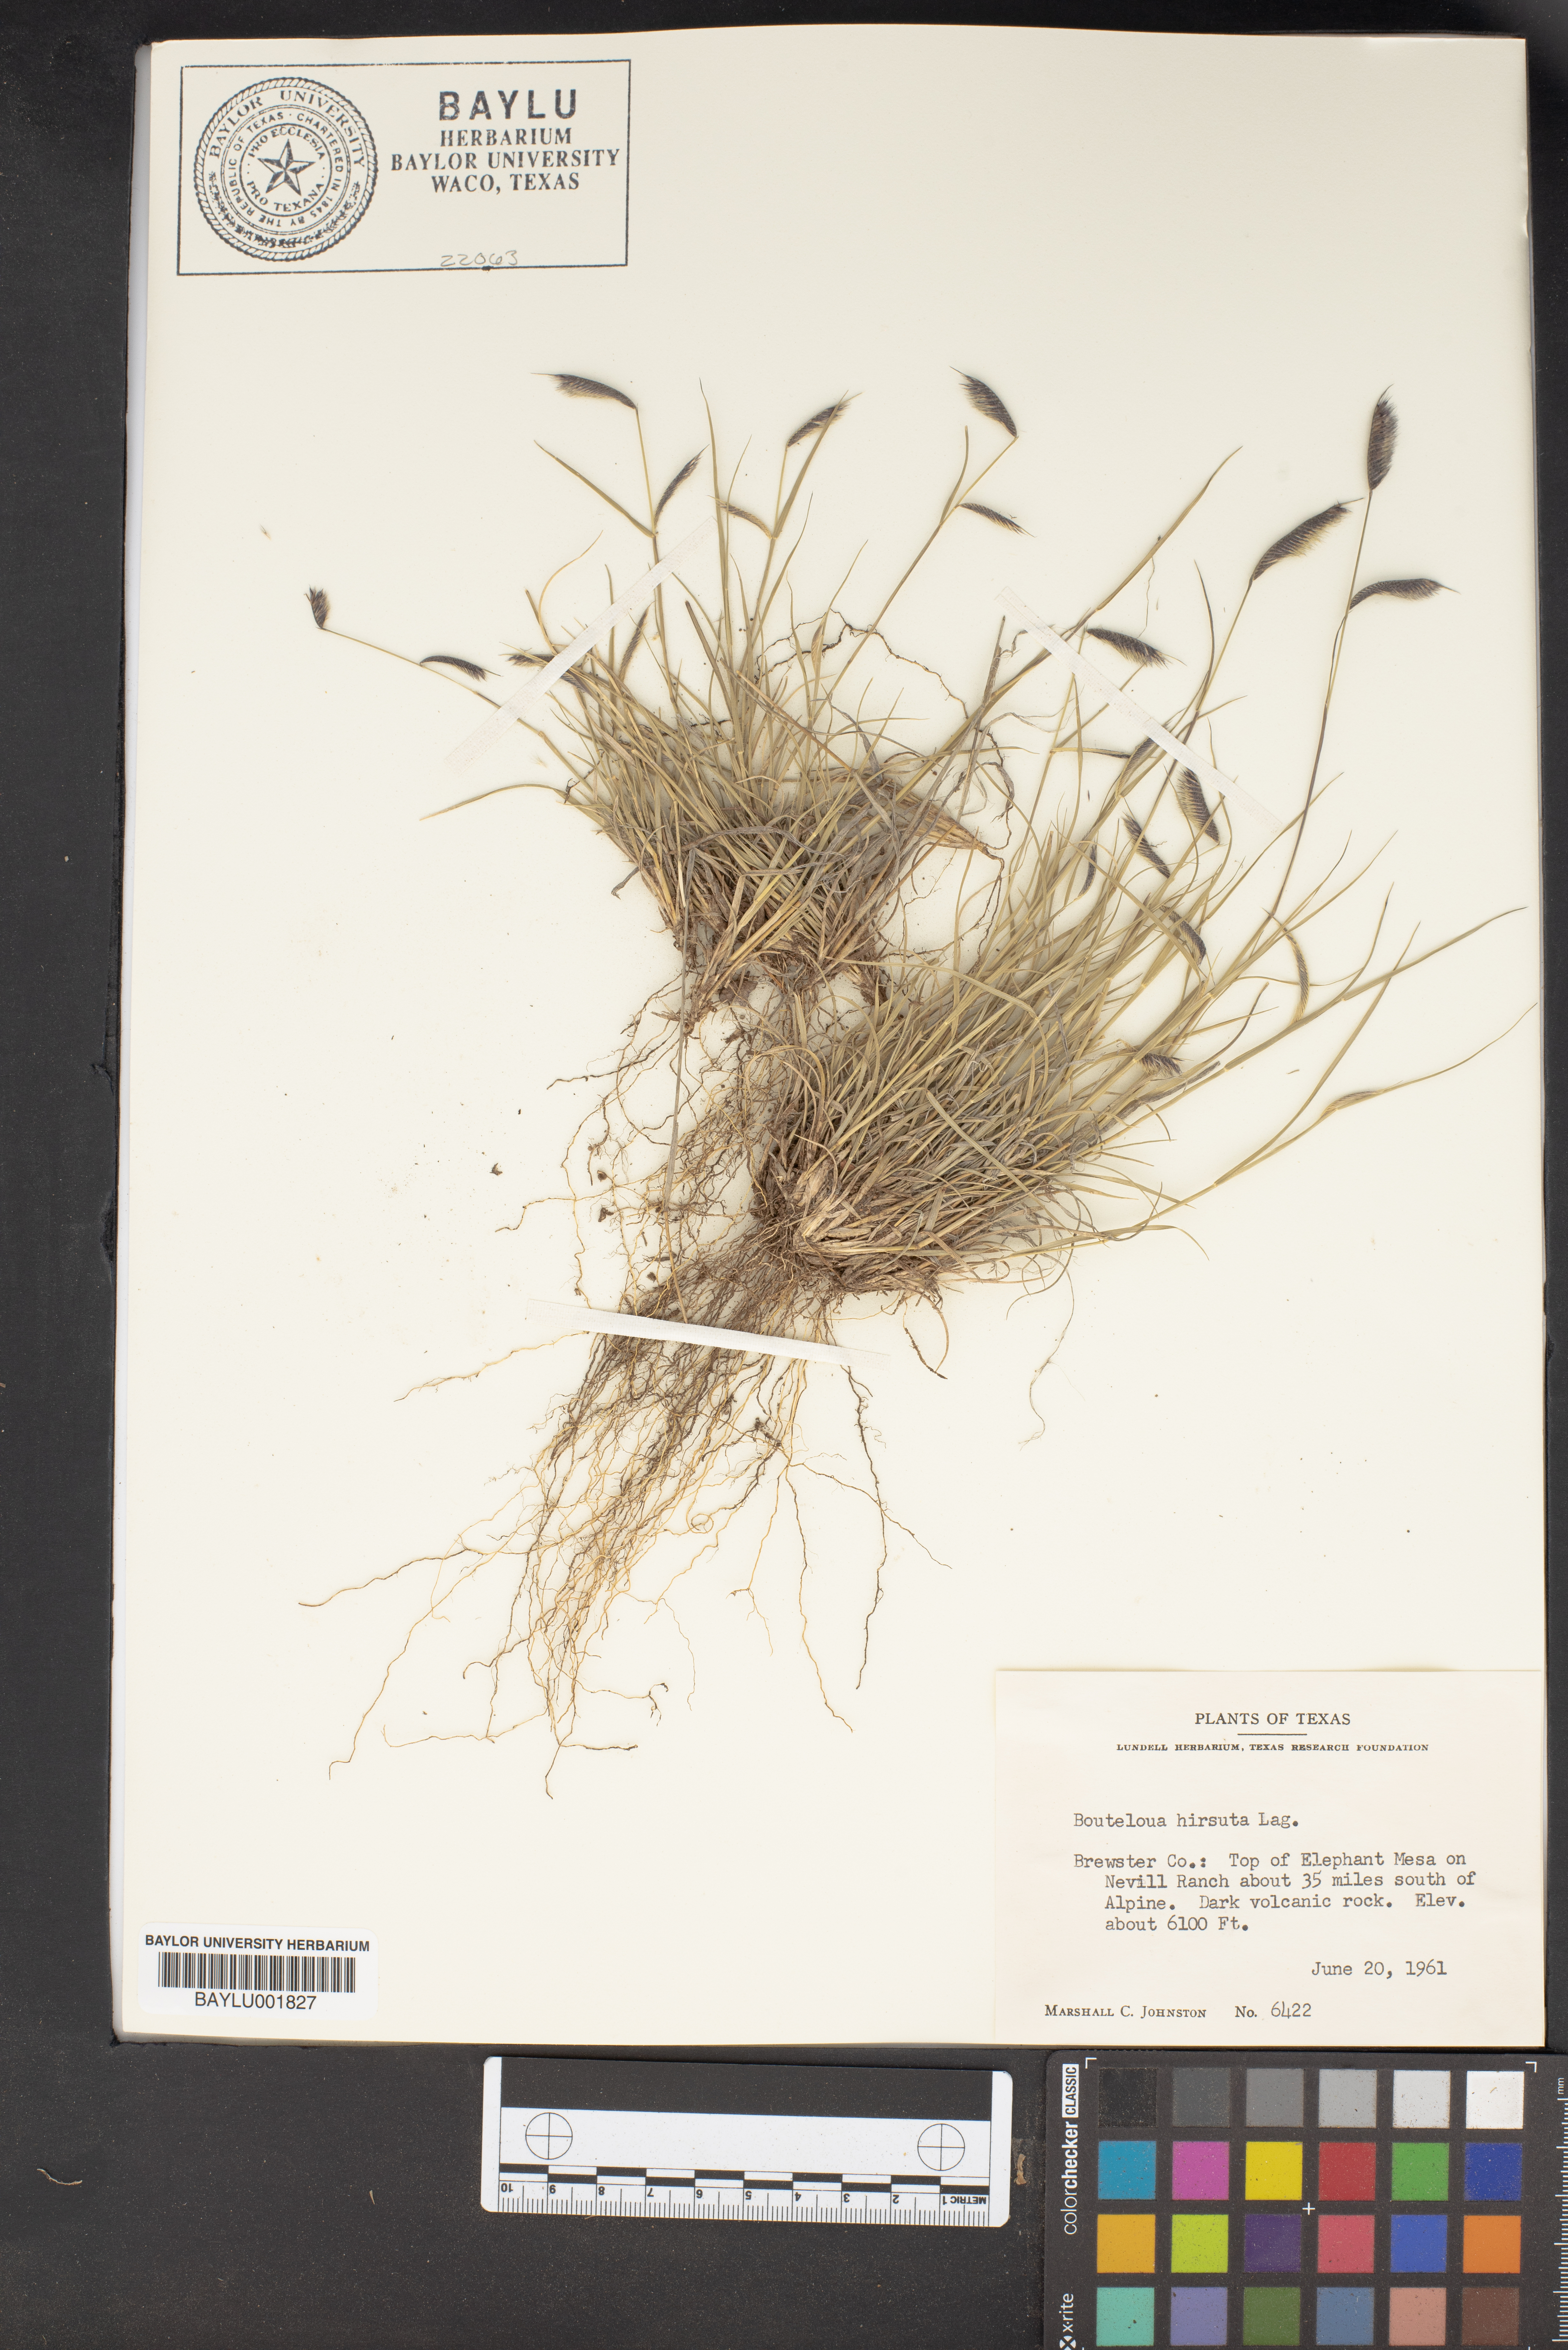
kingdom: Plantae
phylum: Tracheophyta
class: Liliopsida
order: Poales
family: Poaceae
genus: Bouteloua
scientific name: Bouteloua hirsuta
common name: Hairy grama
